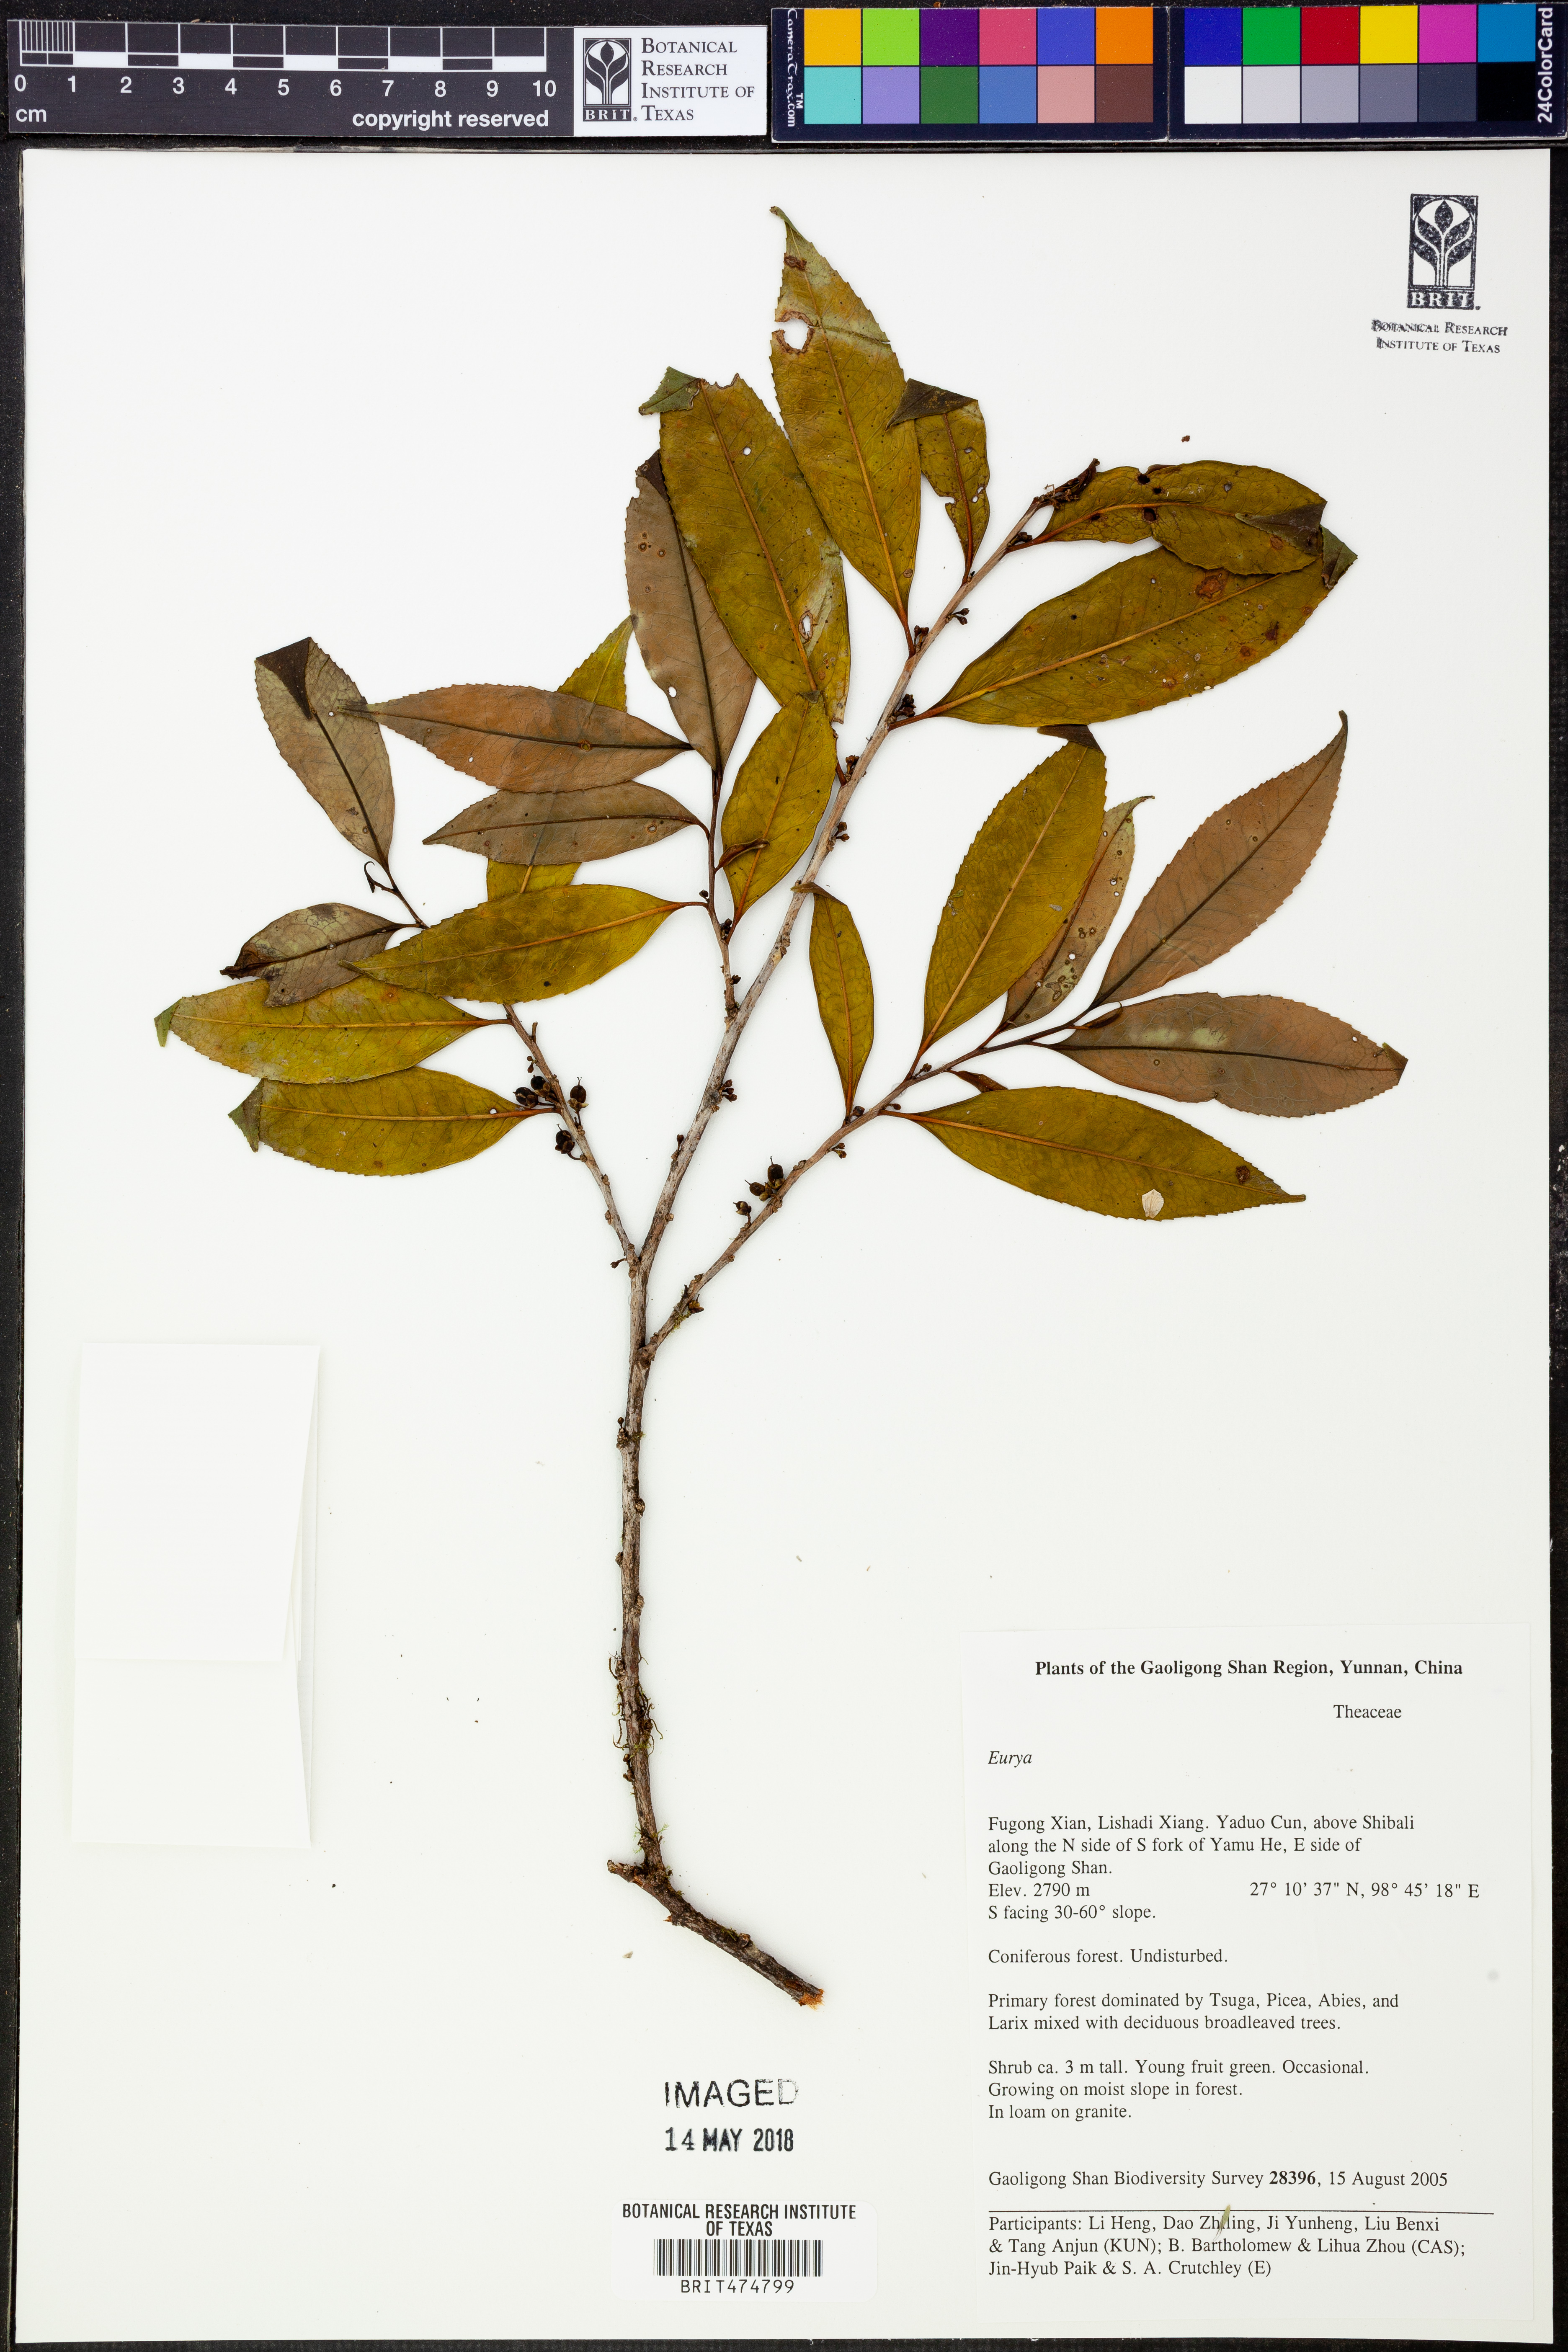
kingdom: Plantae
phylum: Tracheophyta
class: Magnoliopsida
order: Ericales
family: Pentaphylacaceae
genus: Eurya
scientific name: Eurya
